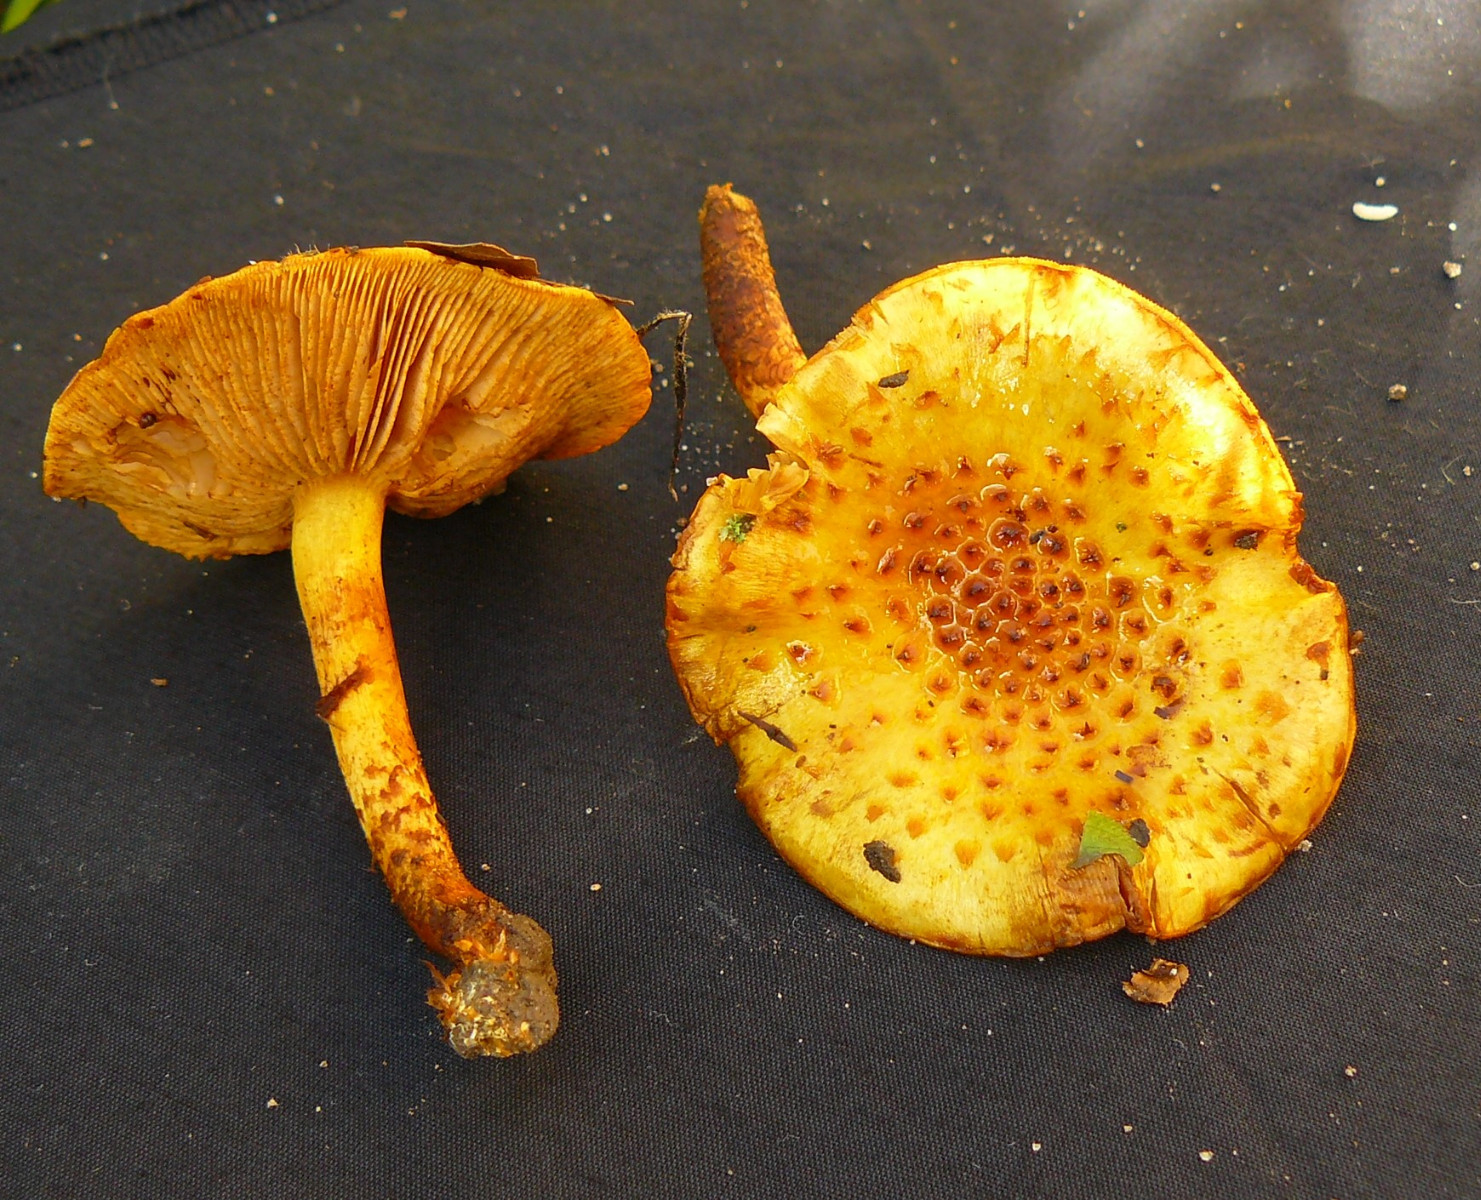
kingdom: Fungi
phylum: Basidiomycota
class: Agaricomycetes
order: Agaricales
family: Strophariaceae
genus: Pholiota
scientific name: Pholiota
